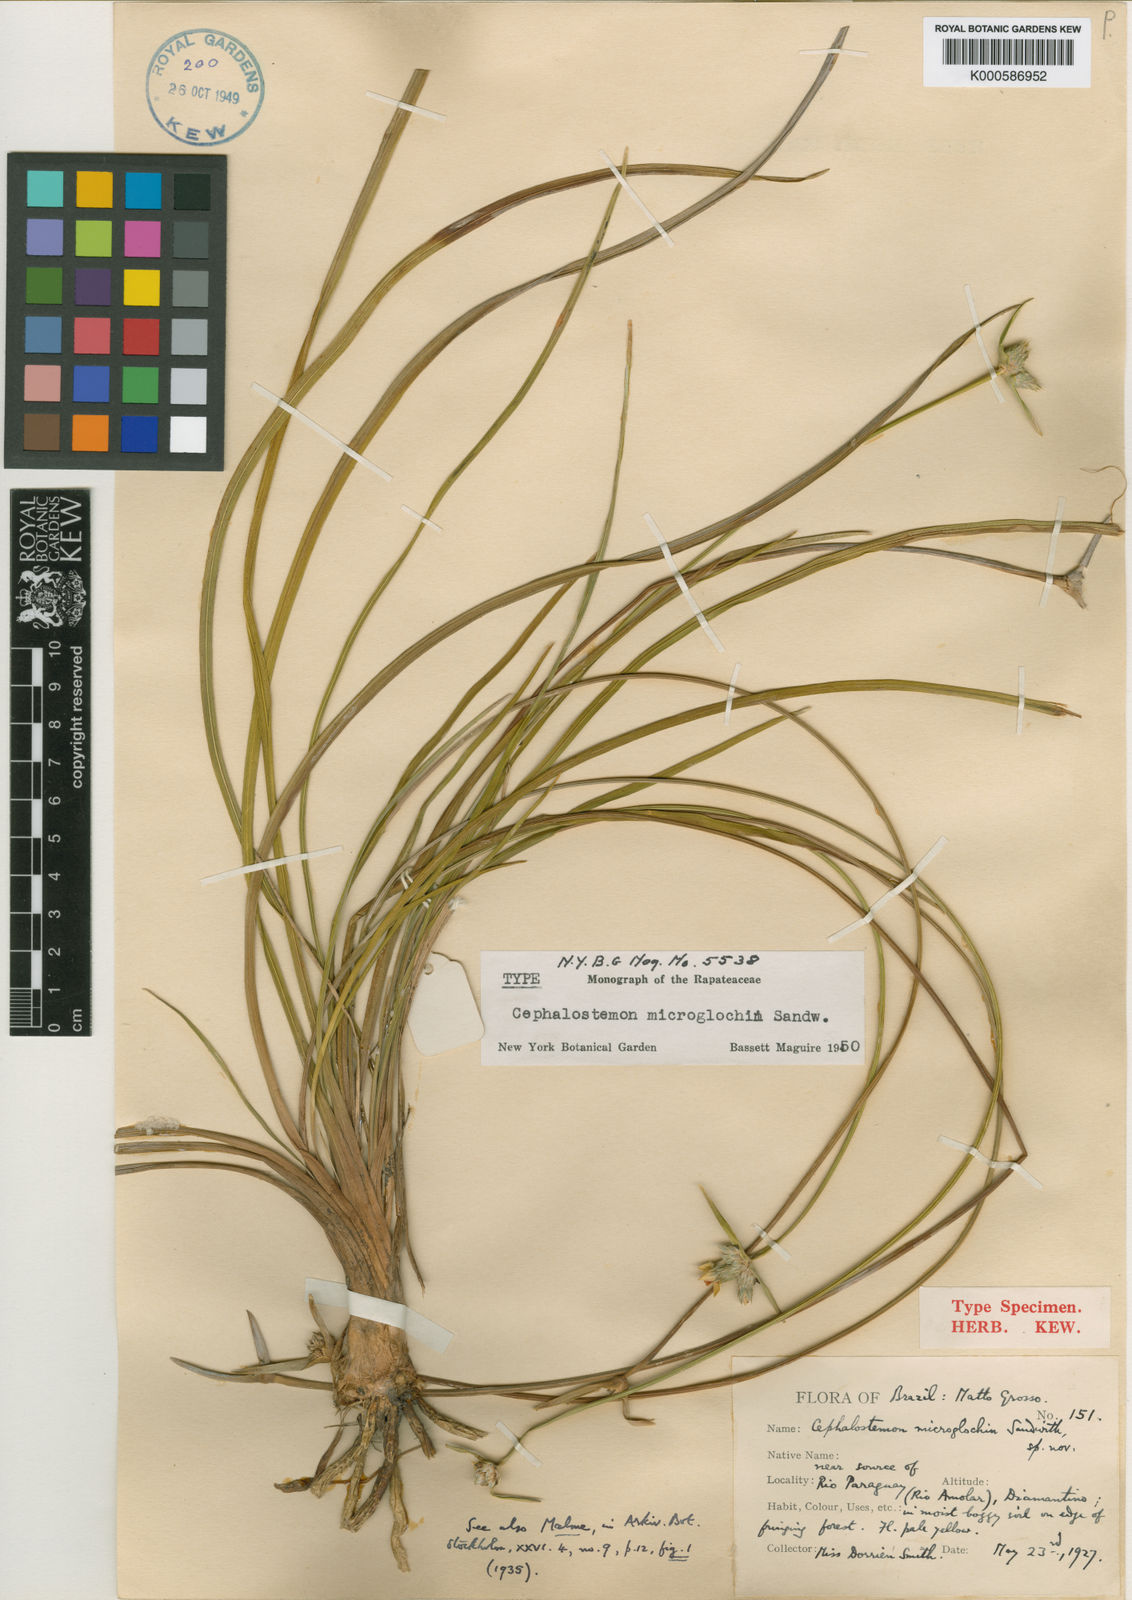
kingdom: Plantae
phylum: Tracheophyta
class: Liliopsida
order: Poales
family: Rapateaceae
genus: Cephalostemon
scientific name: Cephalostemon microglochin
